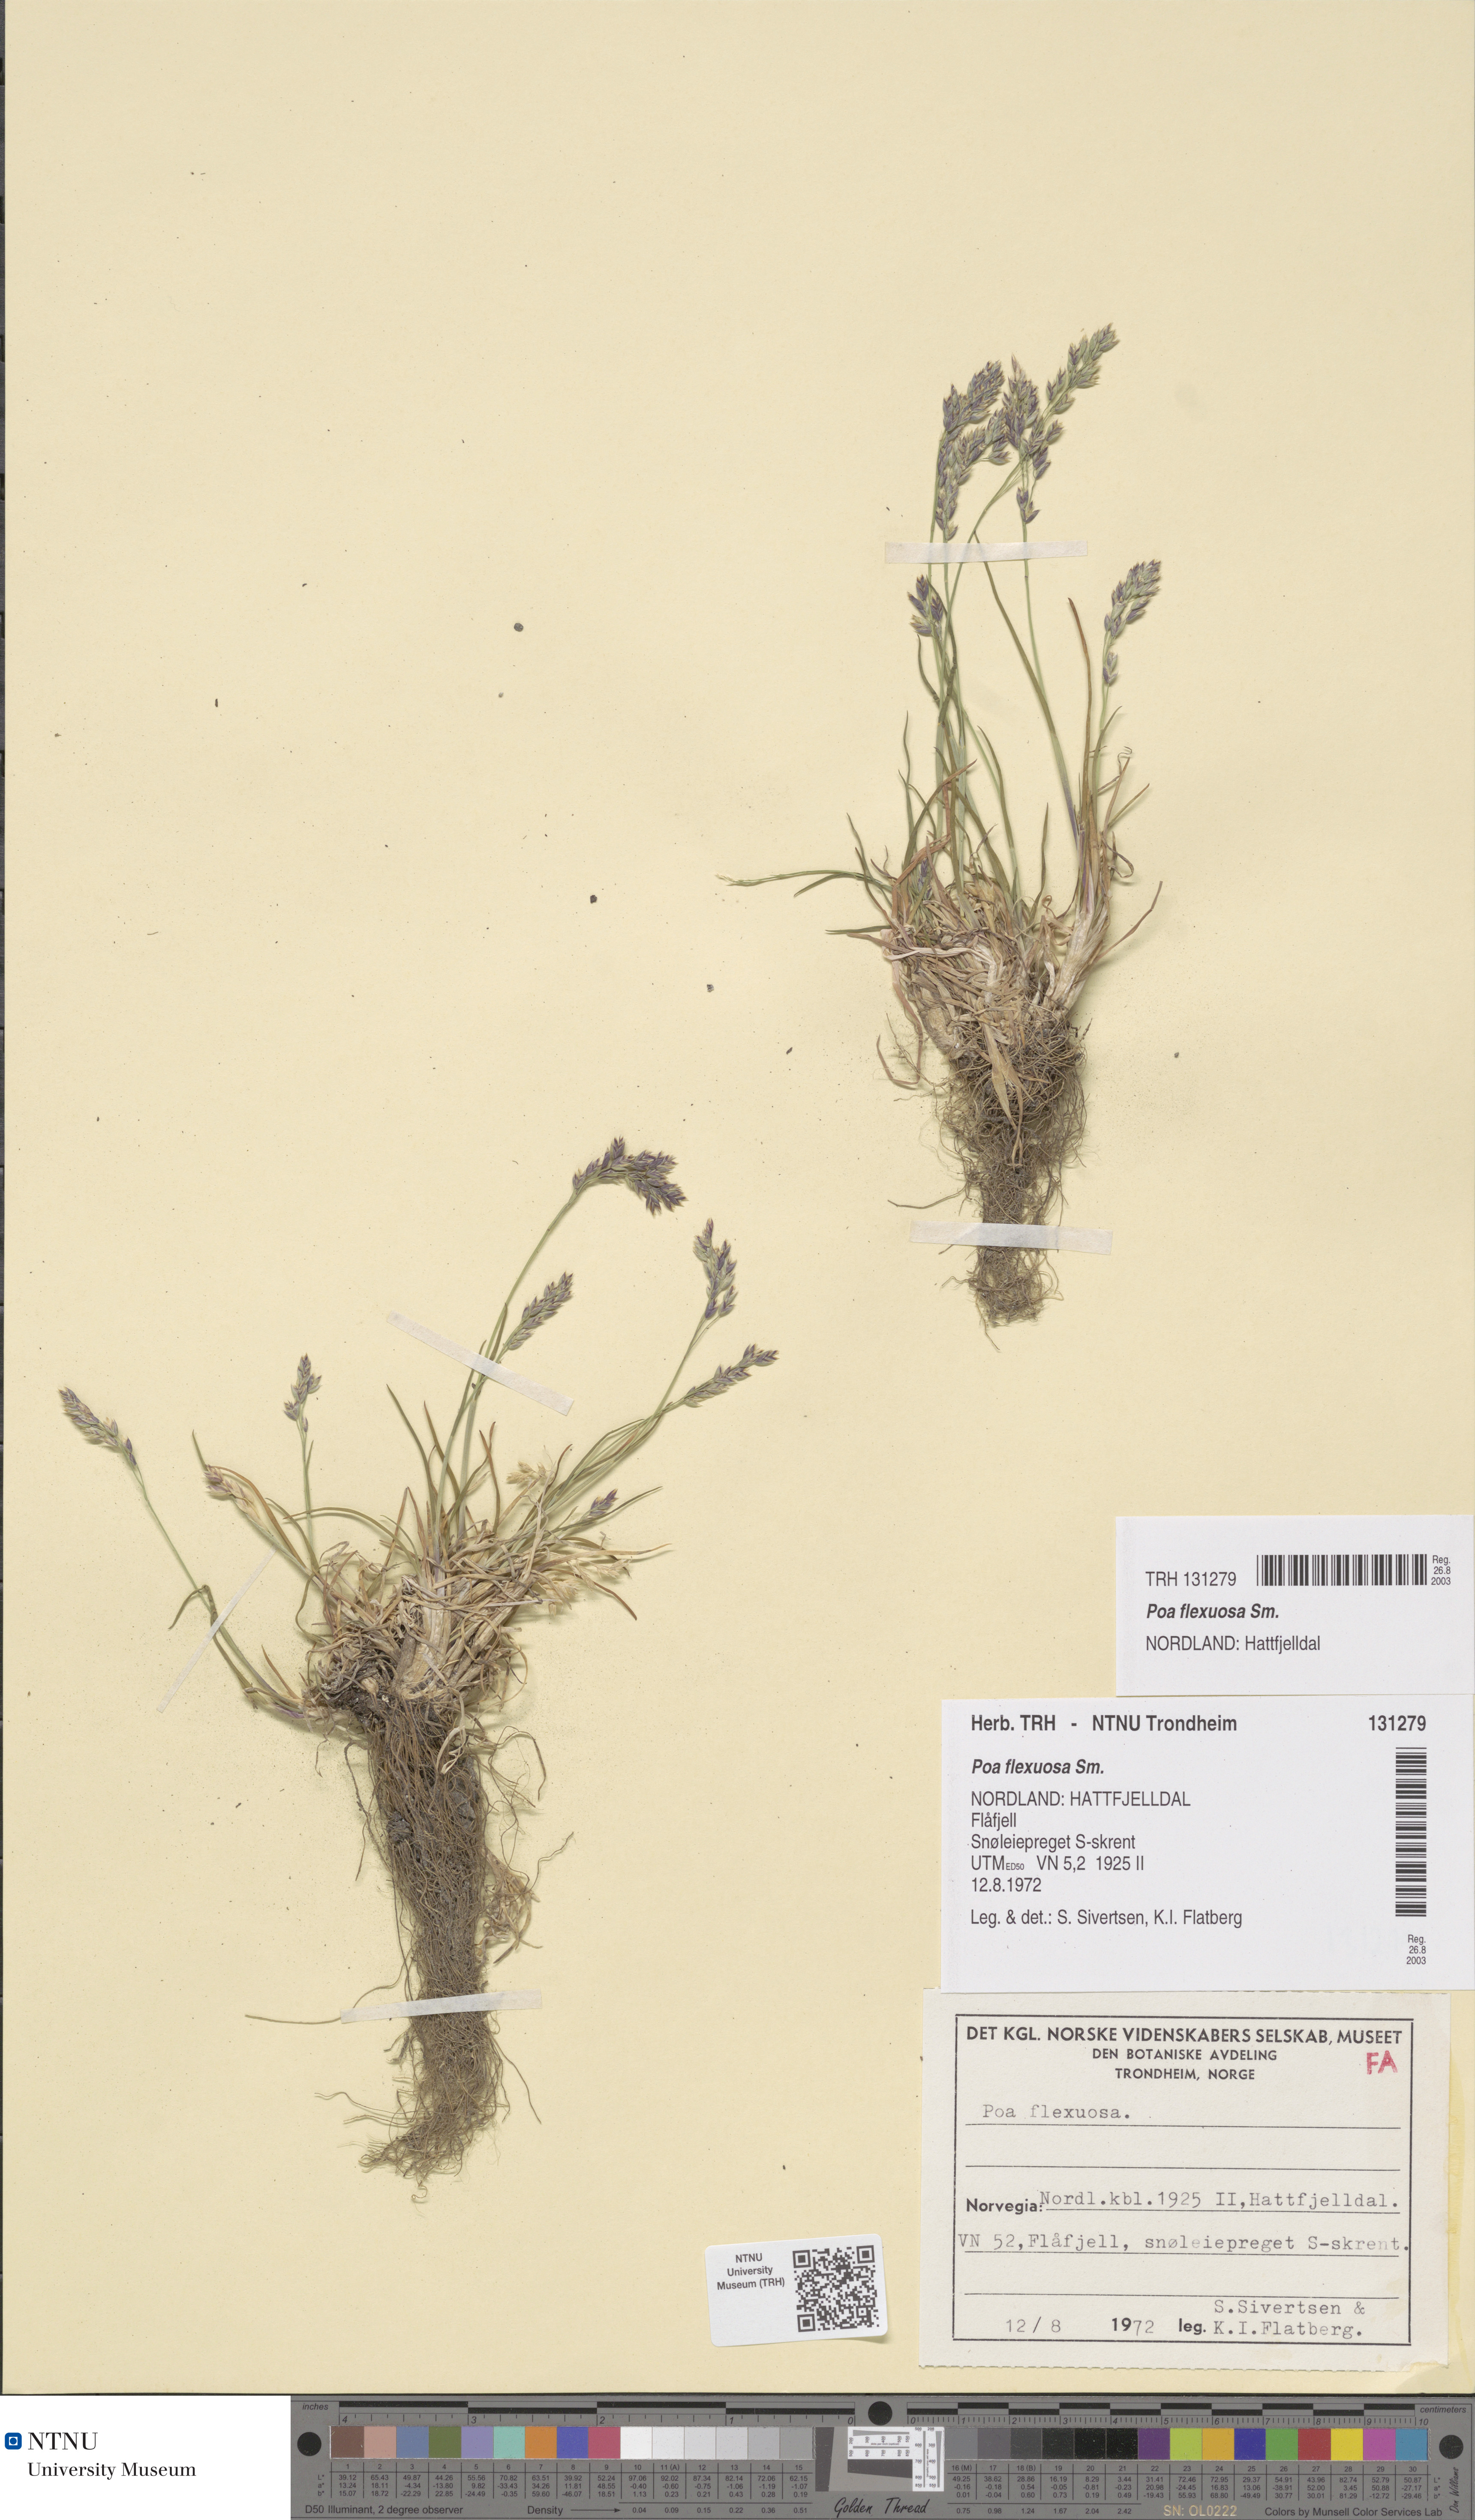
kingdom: Plantae
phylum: Tracheophyta
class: Liliopsida
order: Poales
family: Poaceae
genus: Poa
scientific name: Poa flexuosa
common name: Wavy meadow-grass
